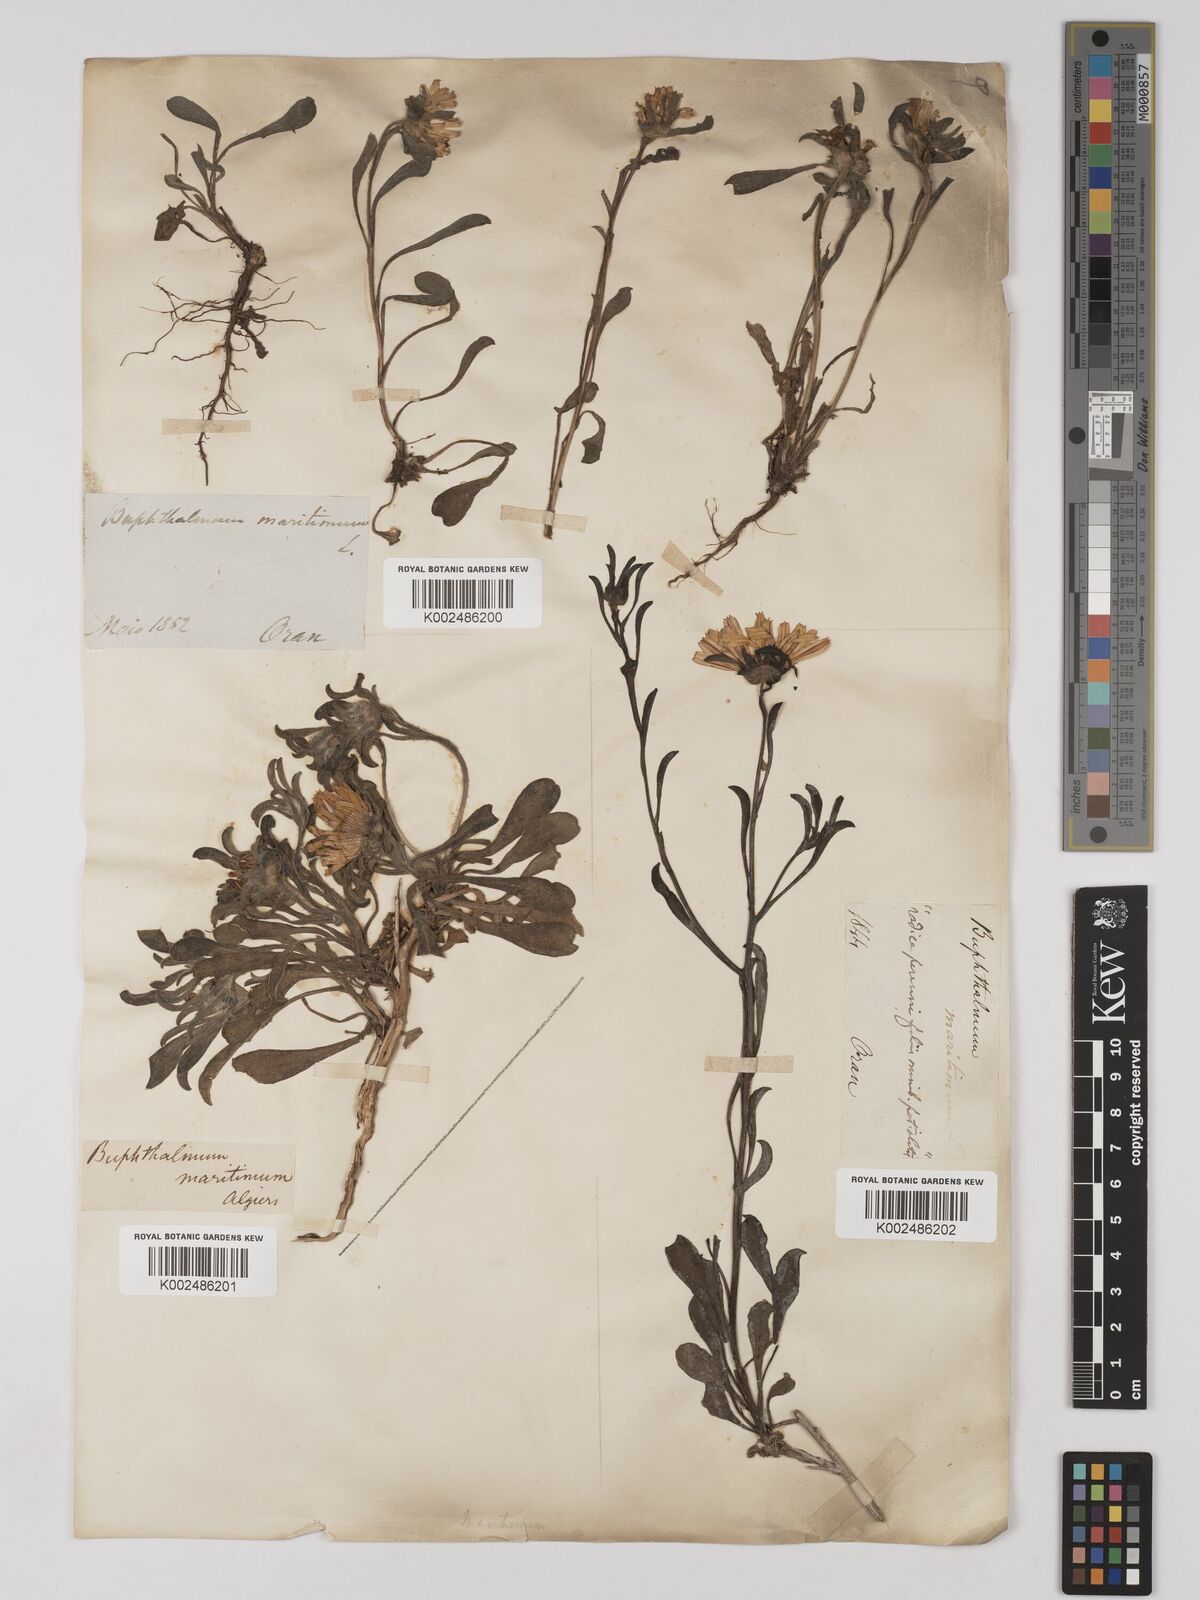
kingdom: Plantae
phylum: Tracheophyta
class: Magnoliopsida
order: Asterales
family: Asteraceae
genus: Pallenis
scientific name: Pallenis maritima
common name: Golden coin daisy
